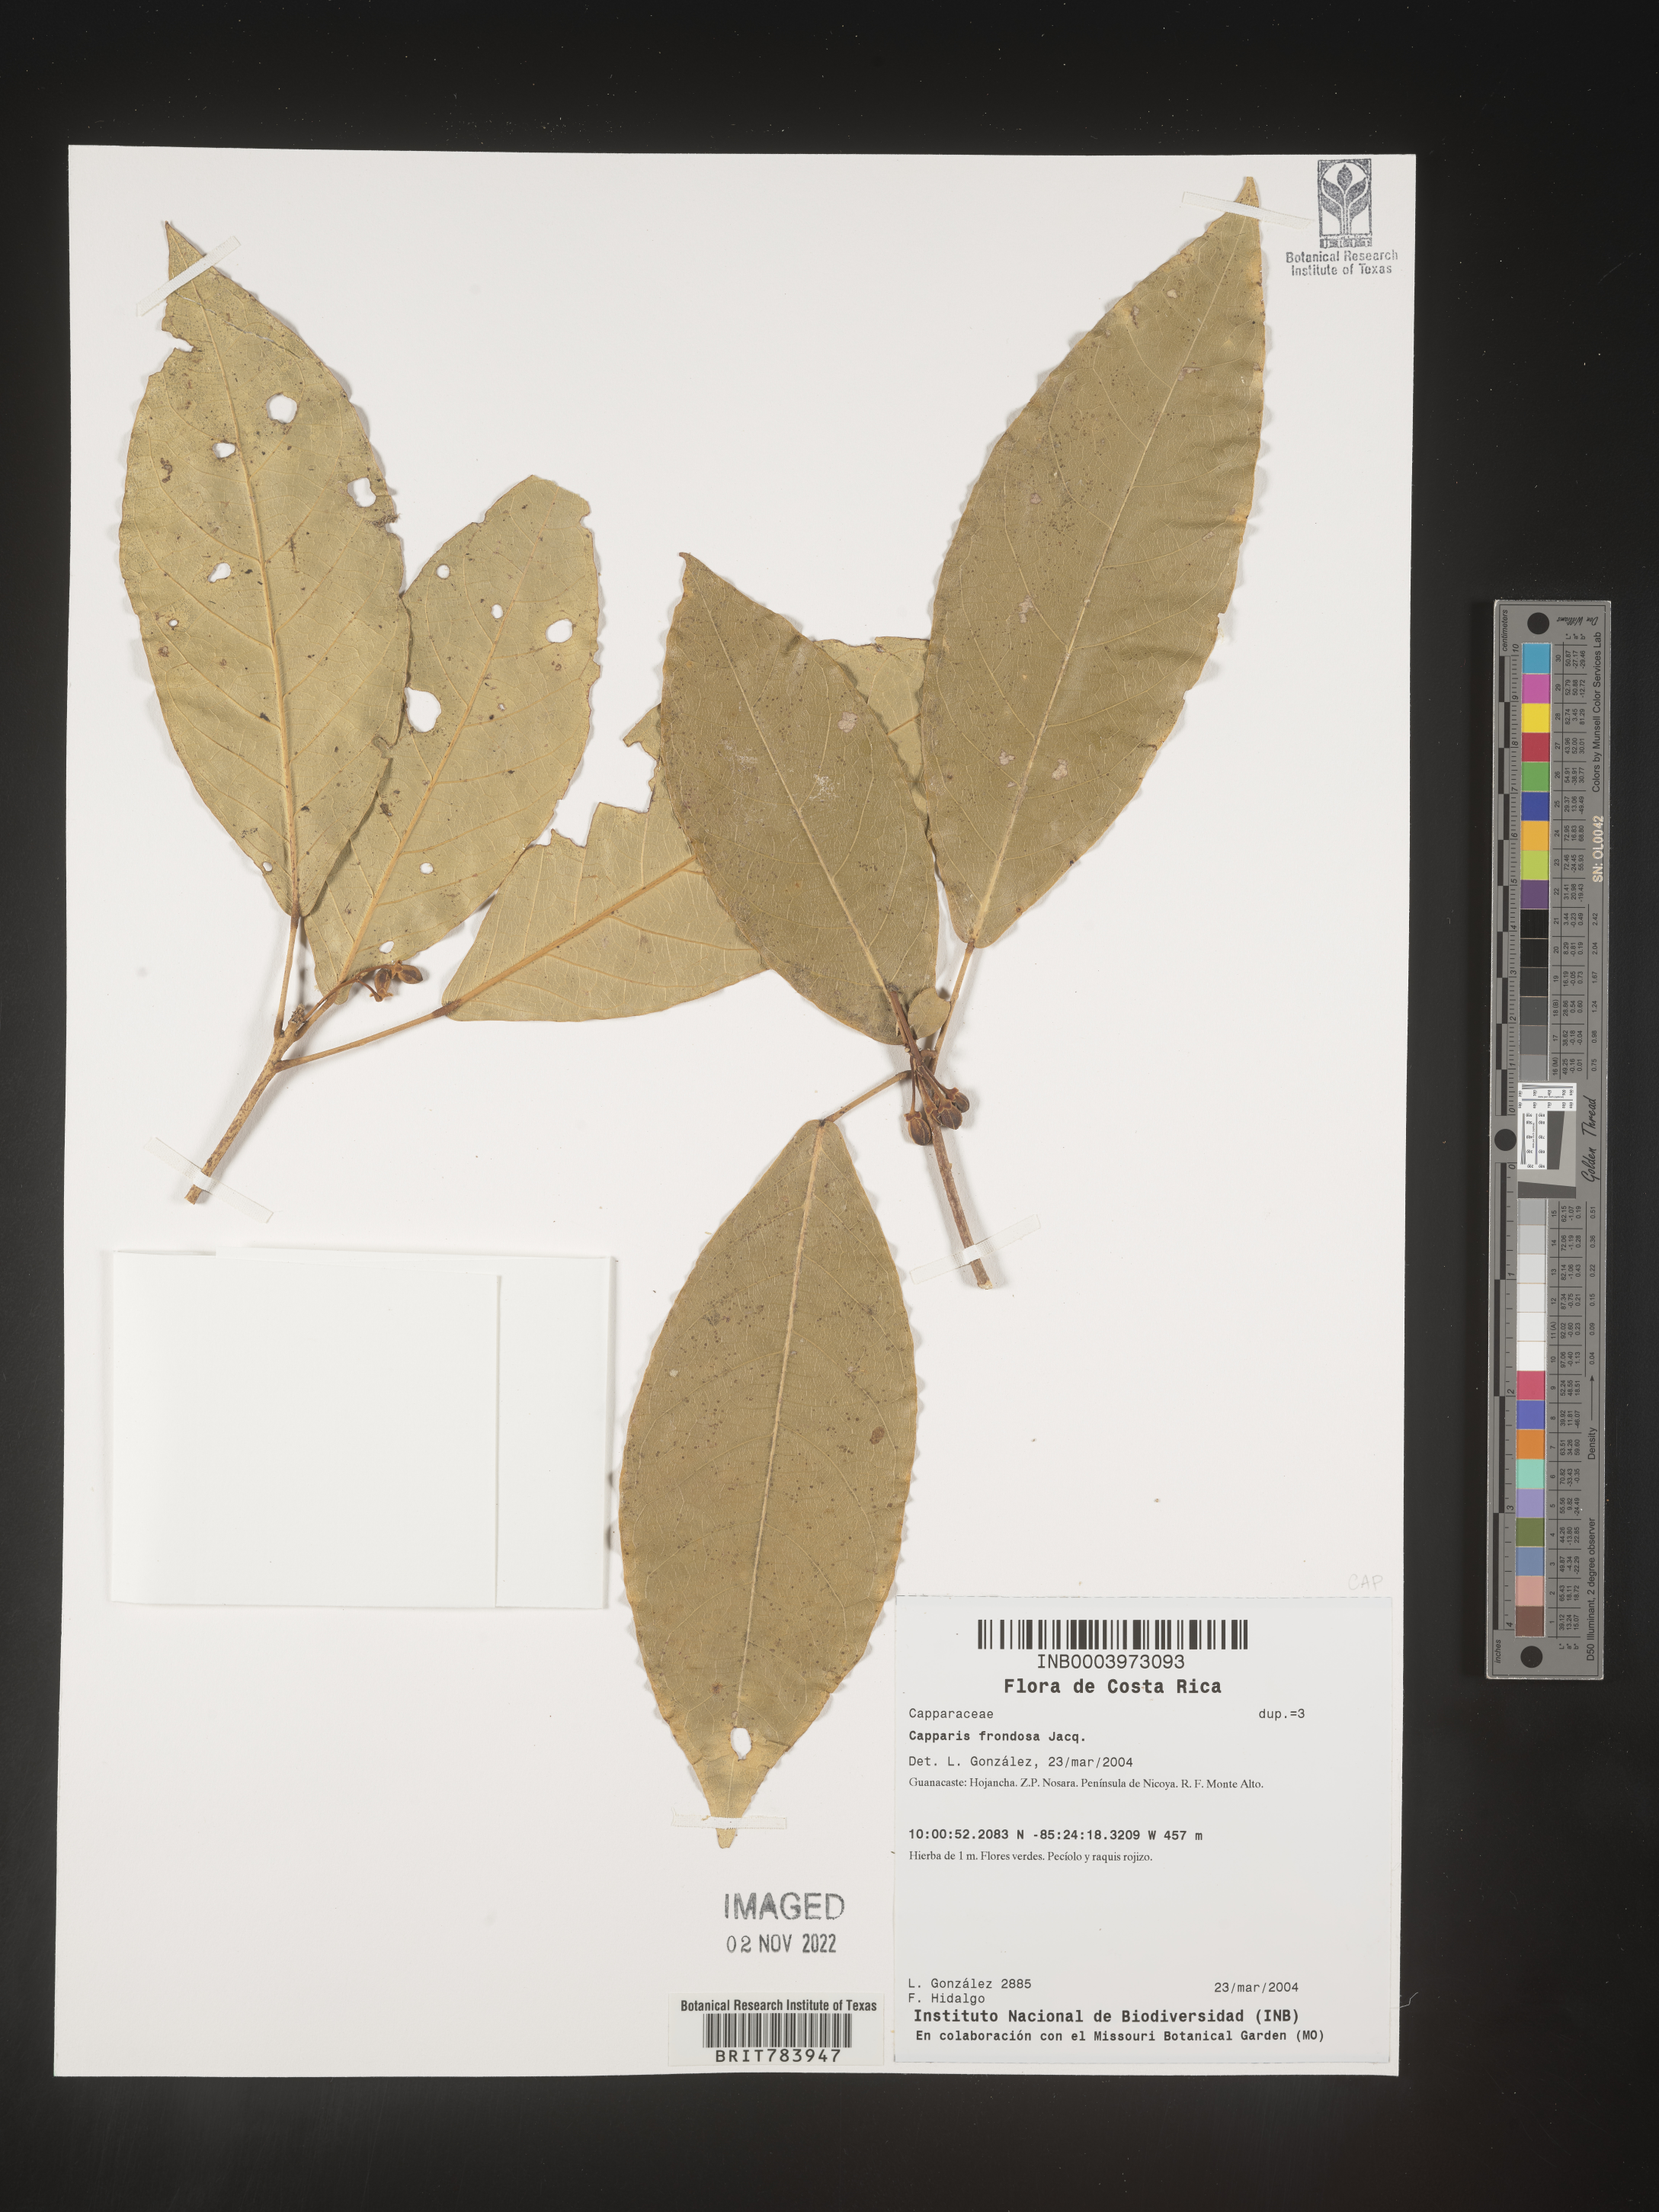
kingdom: Plantae
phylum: Tracheophyta
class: Magnoliopsida
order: Brassicales
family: Capparaceae
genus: Capparis
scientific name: Capparis
